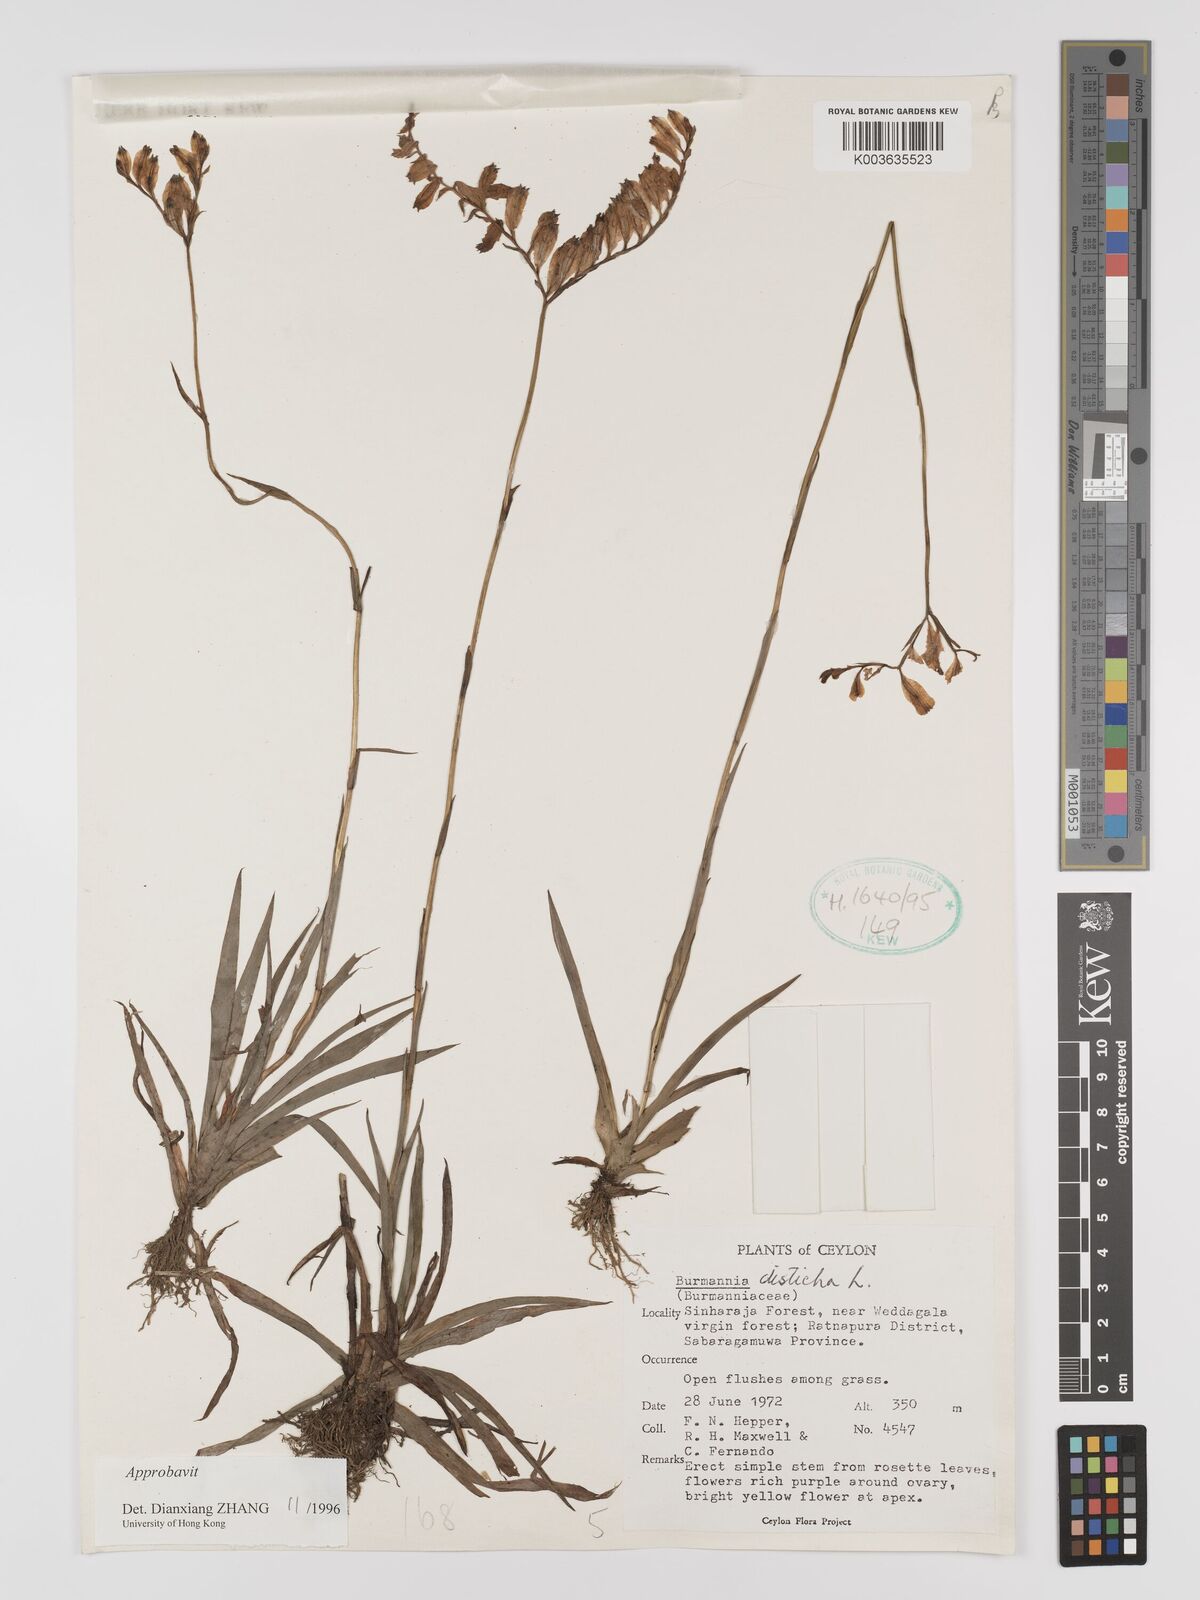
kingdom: Plantae
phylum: Tracheophyta
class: Liliopsida
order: Dioscoreales
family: Burmanniaceae
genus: Burmannia
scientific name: Burmannia disticha
